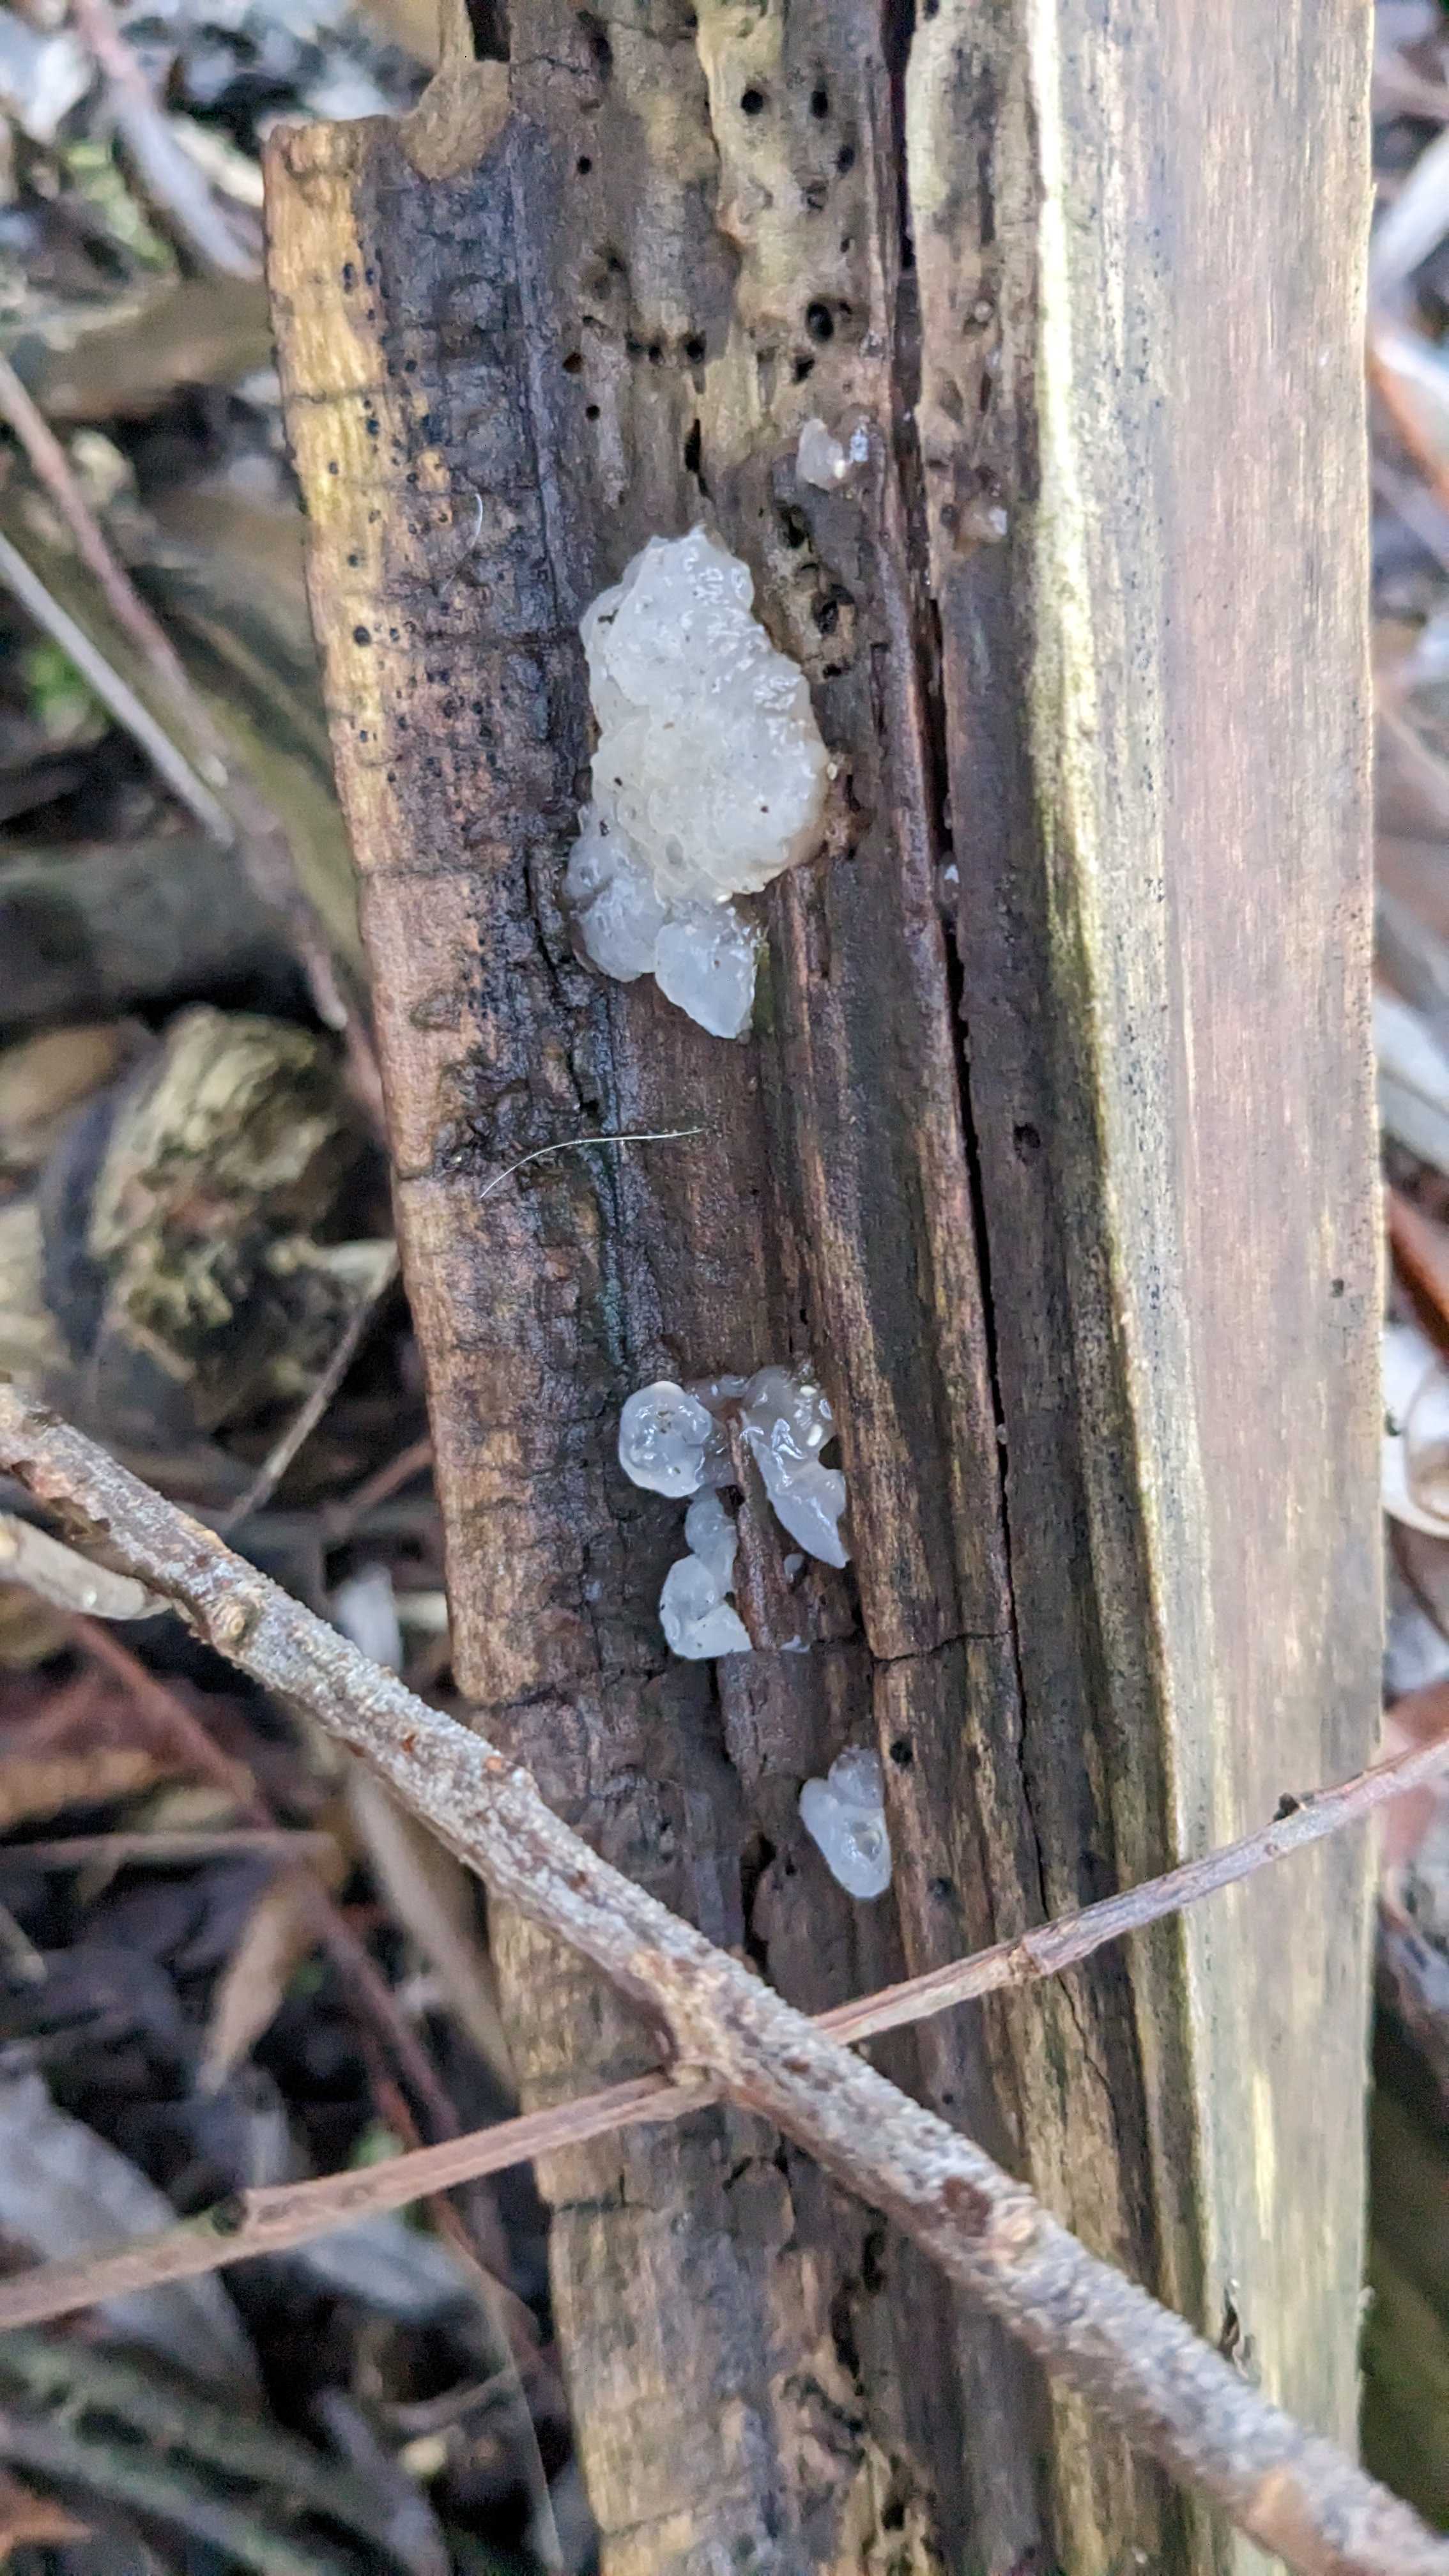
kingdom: Fungi
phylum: Basidiomycota
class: Agaricomycetes
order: Auriculariales
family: Hyaloriaceae
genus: Myxarium
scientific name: Myxarium nucleatum
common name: klar bævretop
